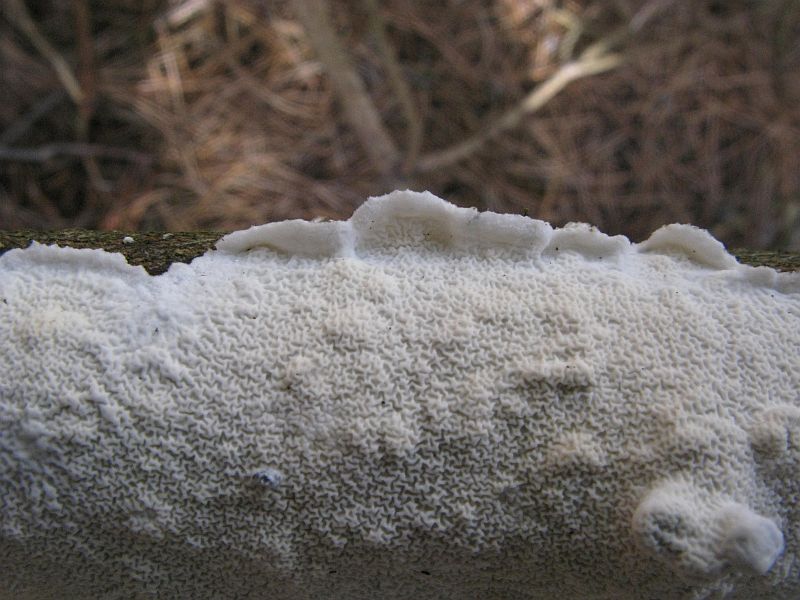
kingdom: Fungi
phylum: Basidiomycota
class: Agaricomycetes
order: Polyporales
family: Irpicaceae
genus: Byssomerulius
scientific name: Byssomerulius corium
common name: læder-åresvamp
